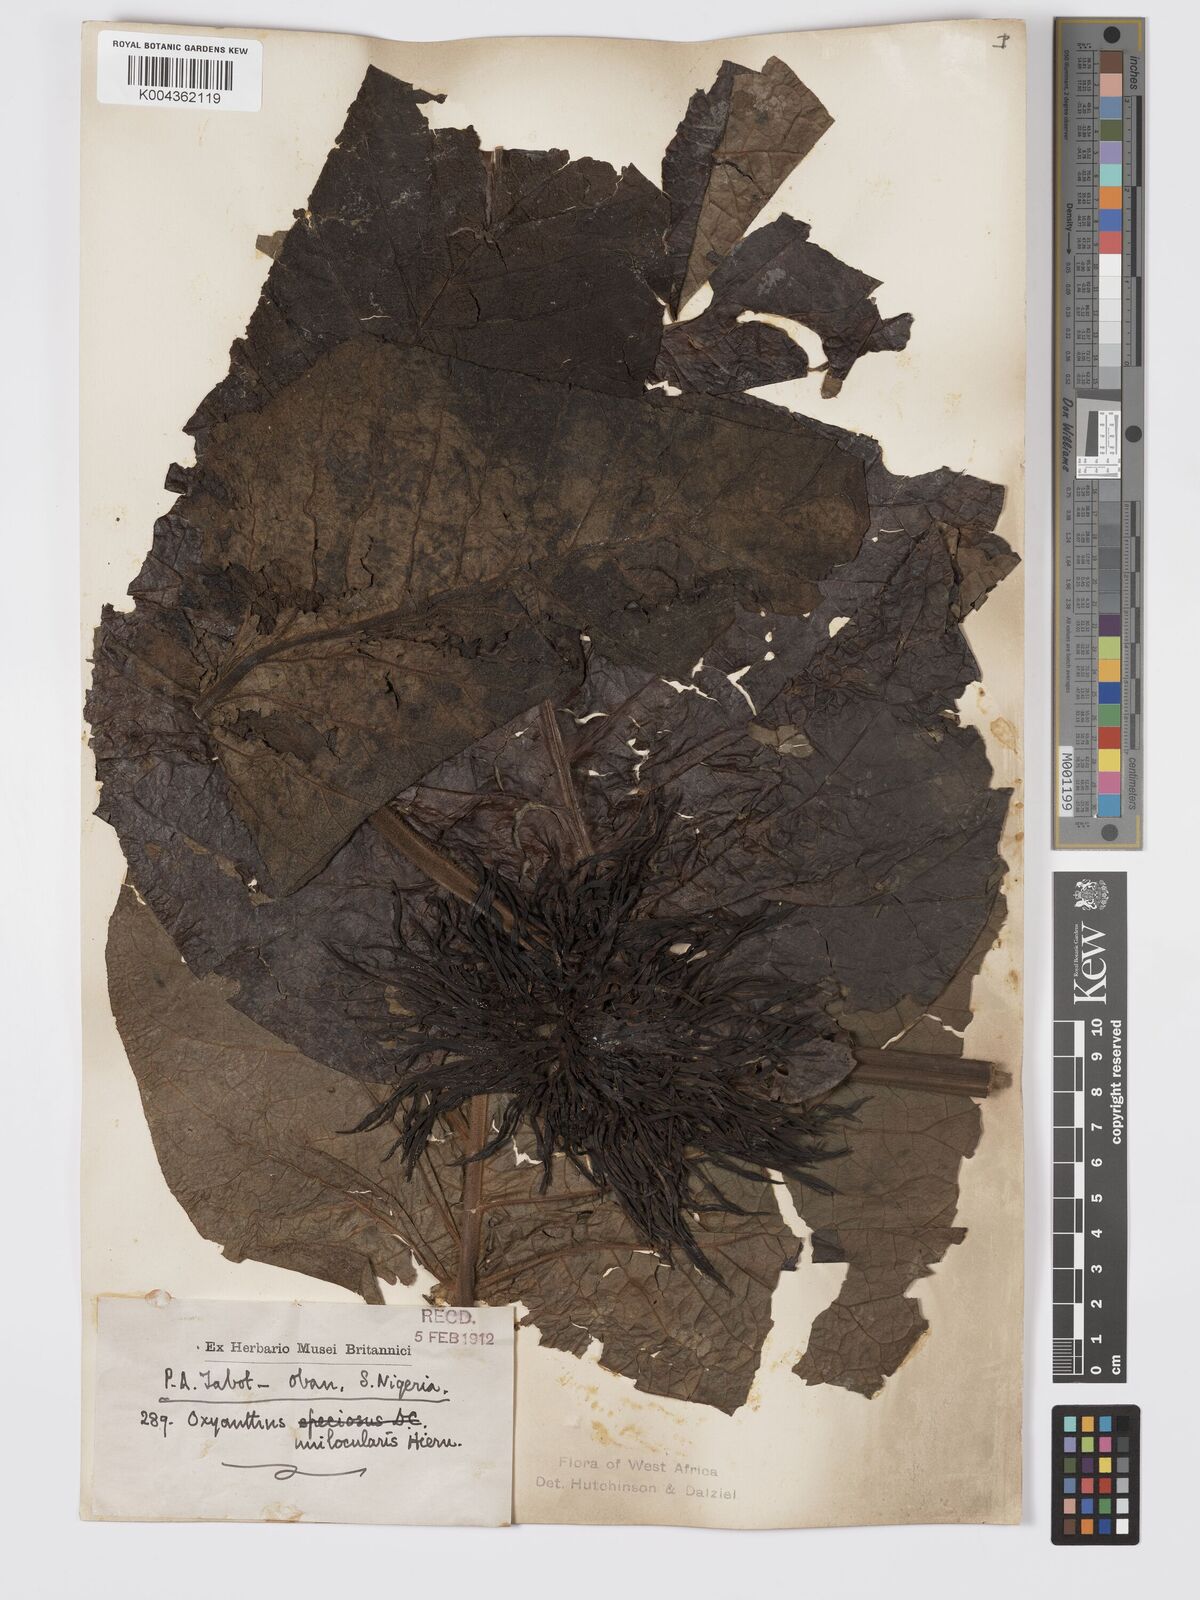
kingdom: Plantae
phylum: Tracheophyta
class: Magnoliopsida
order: Gentianales
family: Rubiaceae
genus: Oxyanthus
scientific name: Oxyanthus unilocularis
